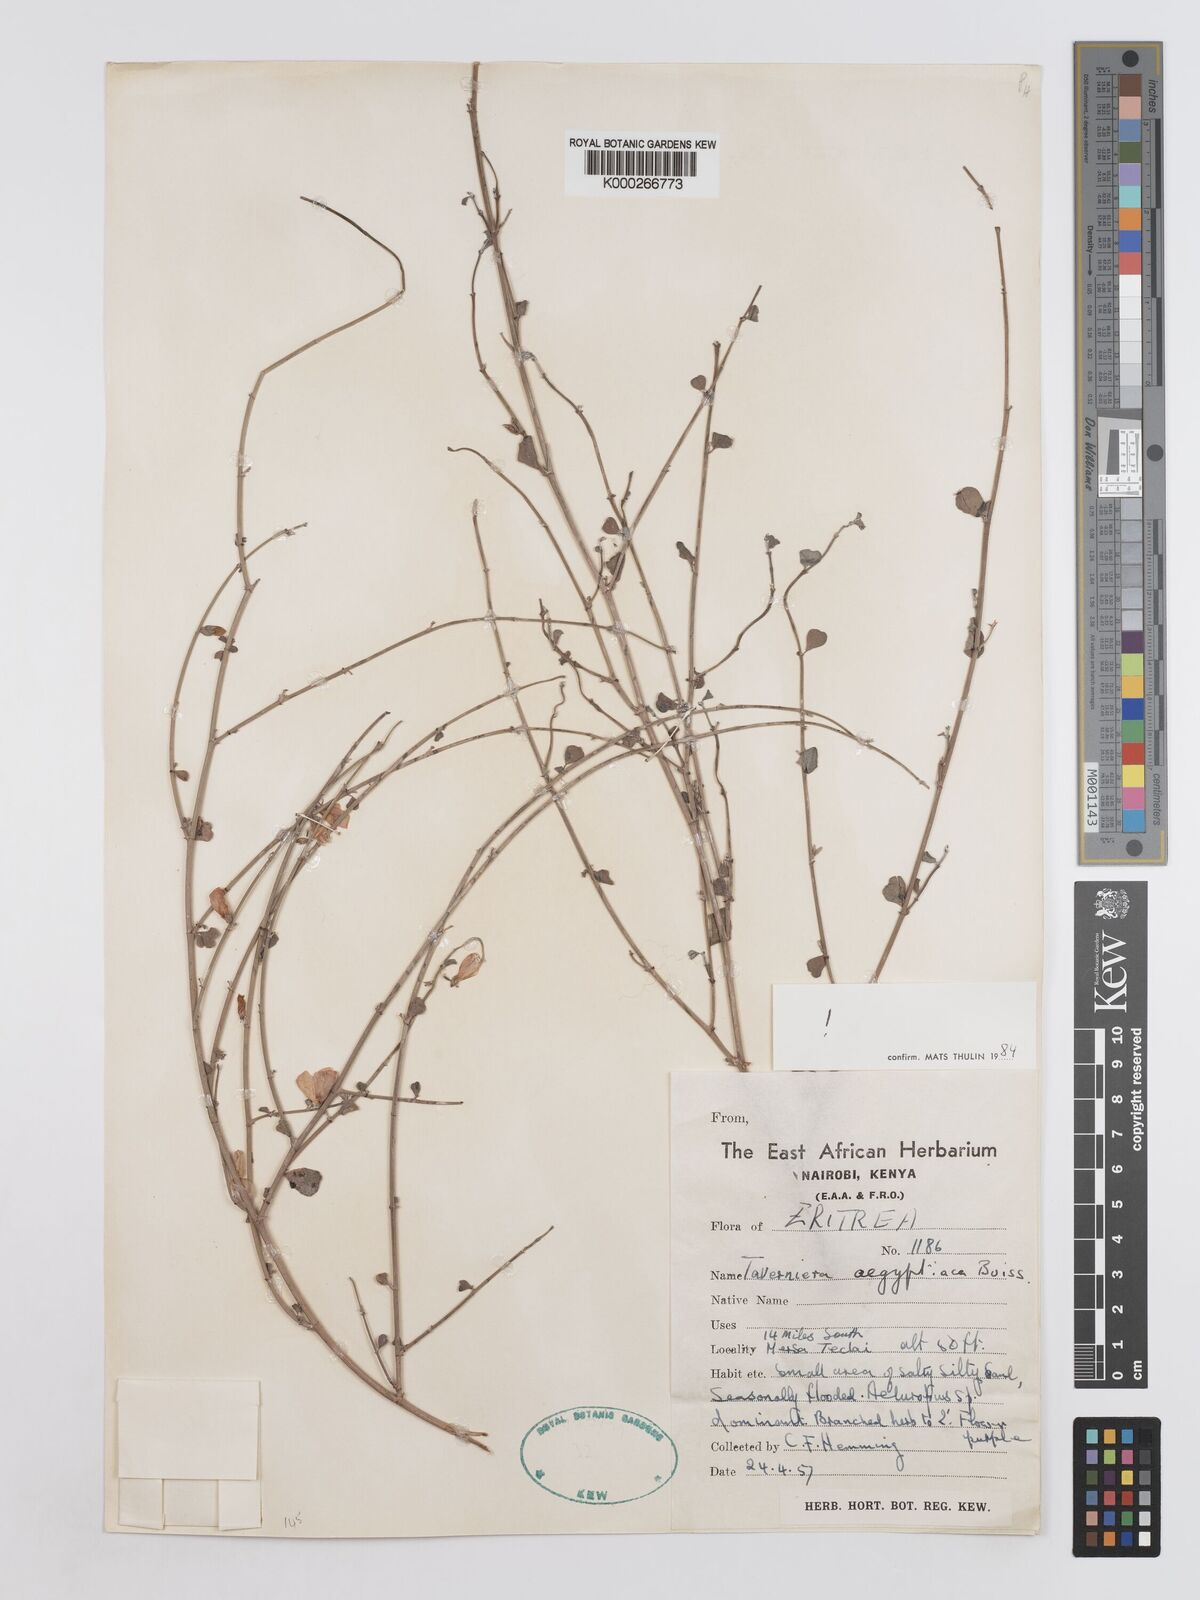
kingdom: Plantae
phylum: Tracheophyta
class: Magnoliopsida
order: Fabales
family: Fabaceae
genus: Taverniera
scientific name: Taverniera aegyptiaca
